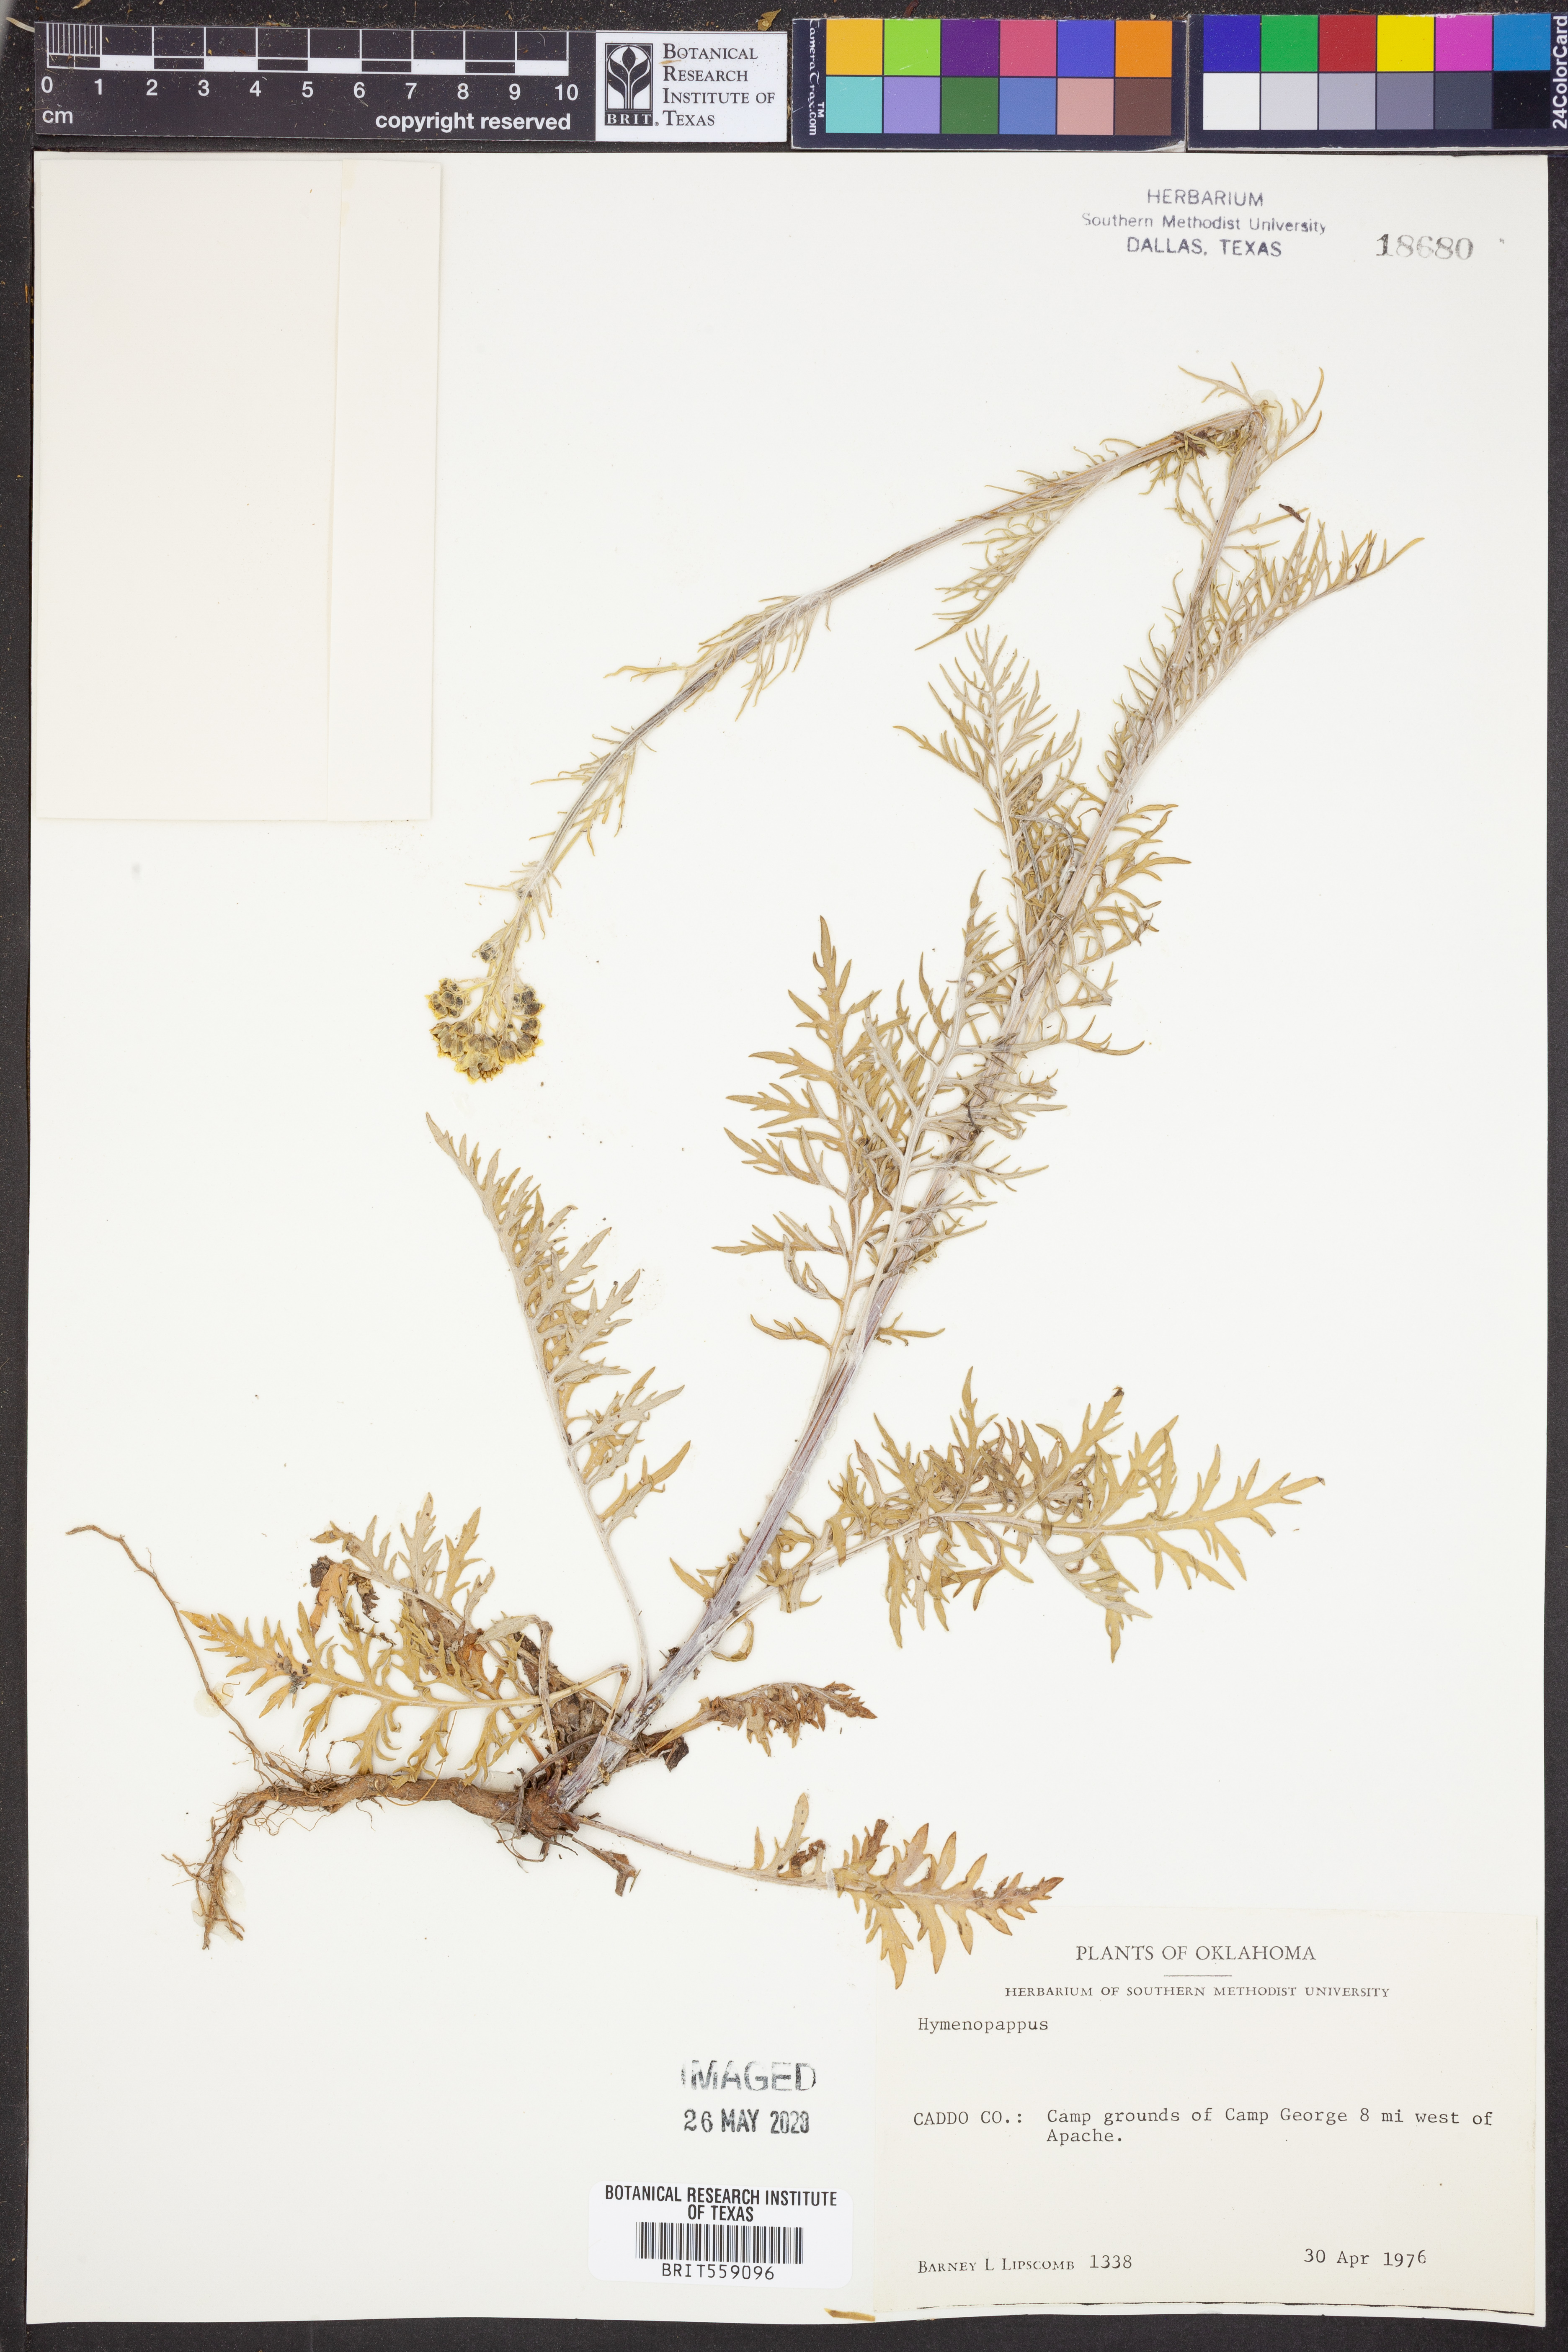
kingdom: Plantae
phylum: Tracheophyta
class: Magnoliopsida
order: Asterales
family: Asteraceae
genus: Hymenopappus
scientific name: Hymenopappus
